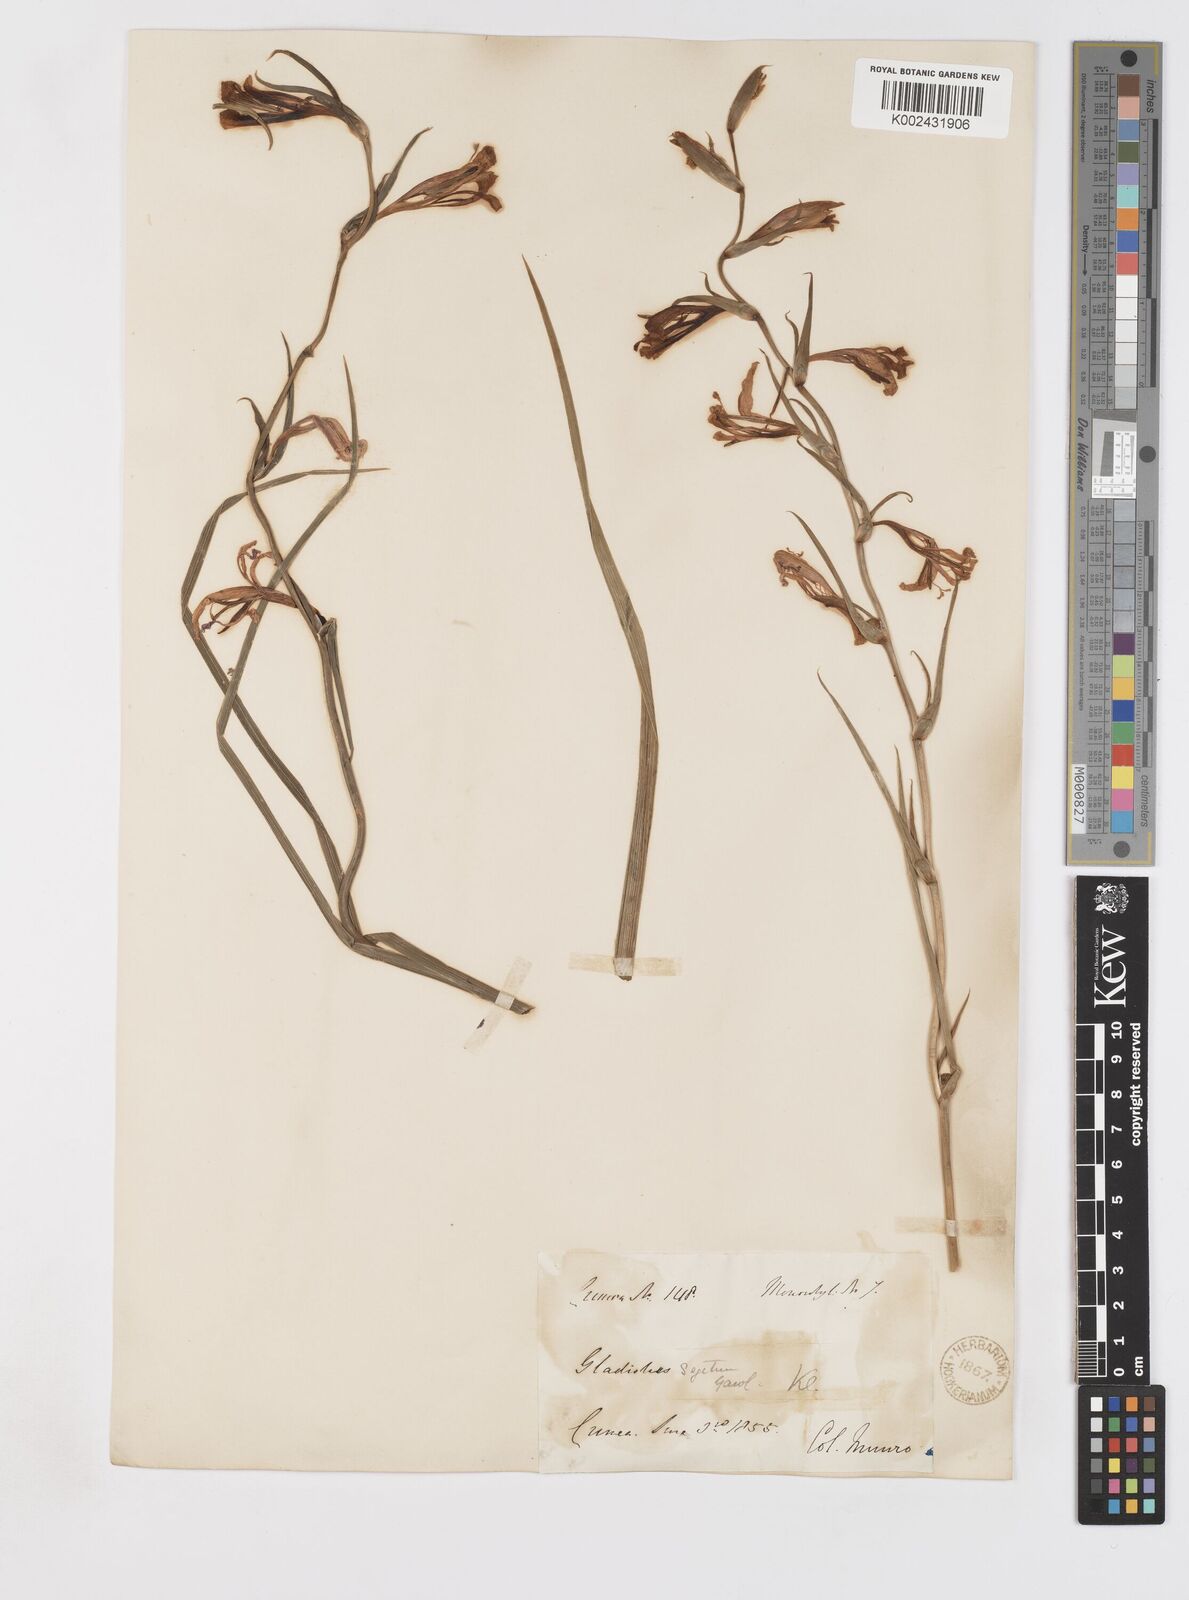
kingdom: Plantae
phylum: Tracheophyta
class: Liliopsida
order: Asparagales
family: Iridaceae
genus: Gladiolus
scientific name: Gladiolus italicus
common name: Field gladiolus
